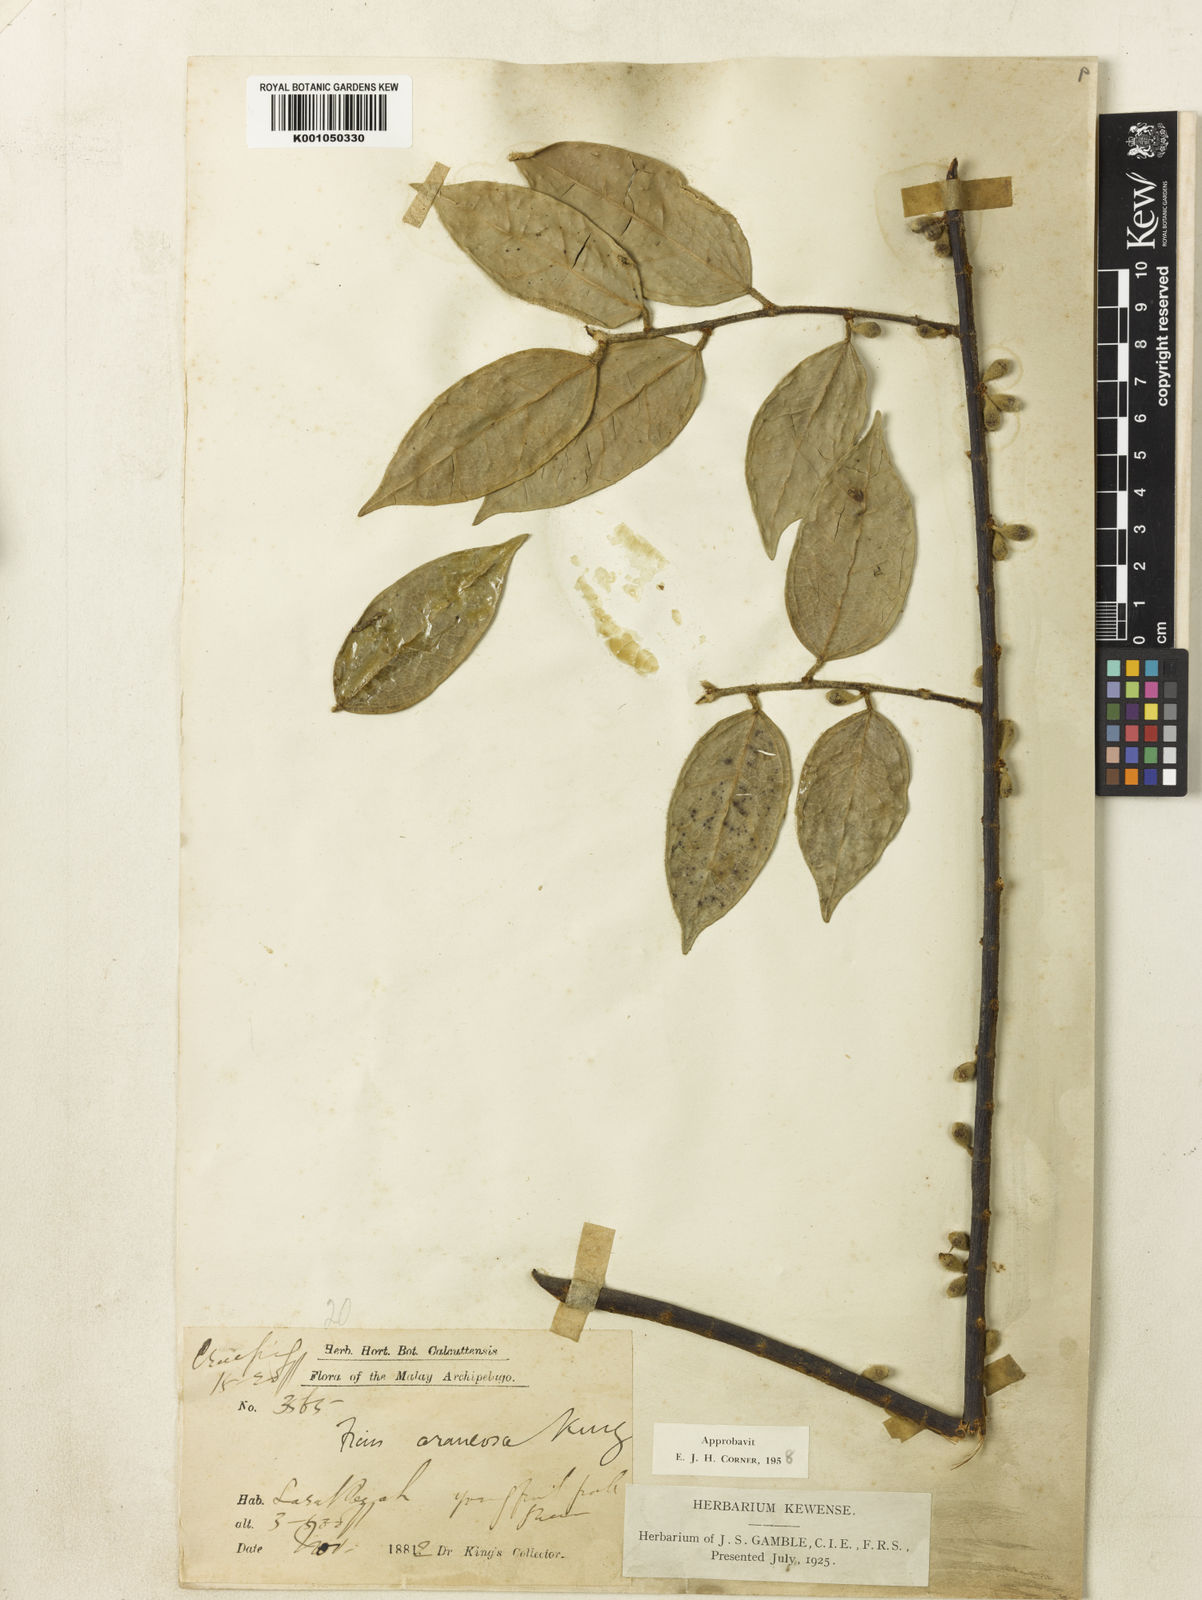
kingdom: Plantae
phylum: Tracheophyta
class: Magnoliopsida
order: Rosales
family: Moraceae
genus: Ficus
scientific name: Ficus araneosa
